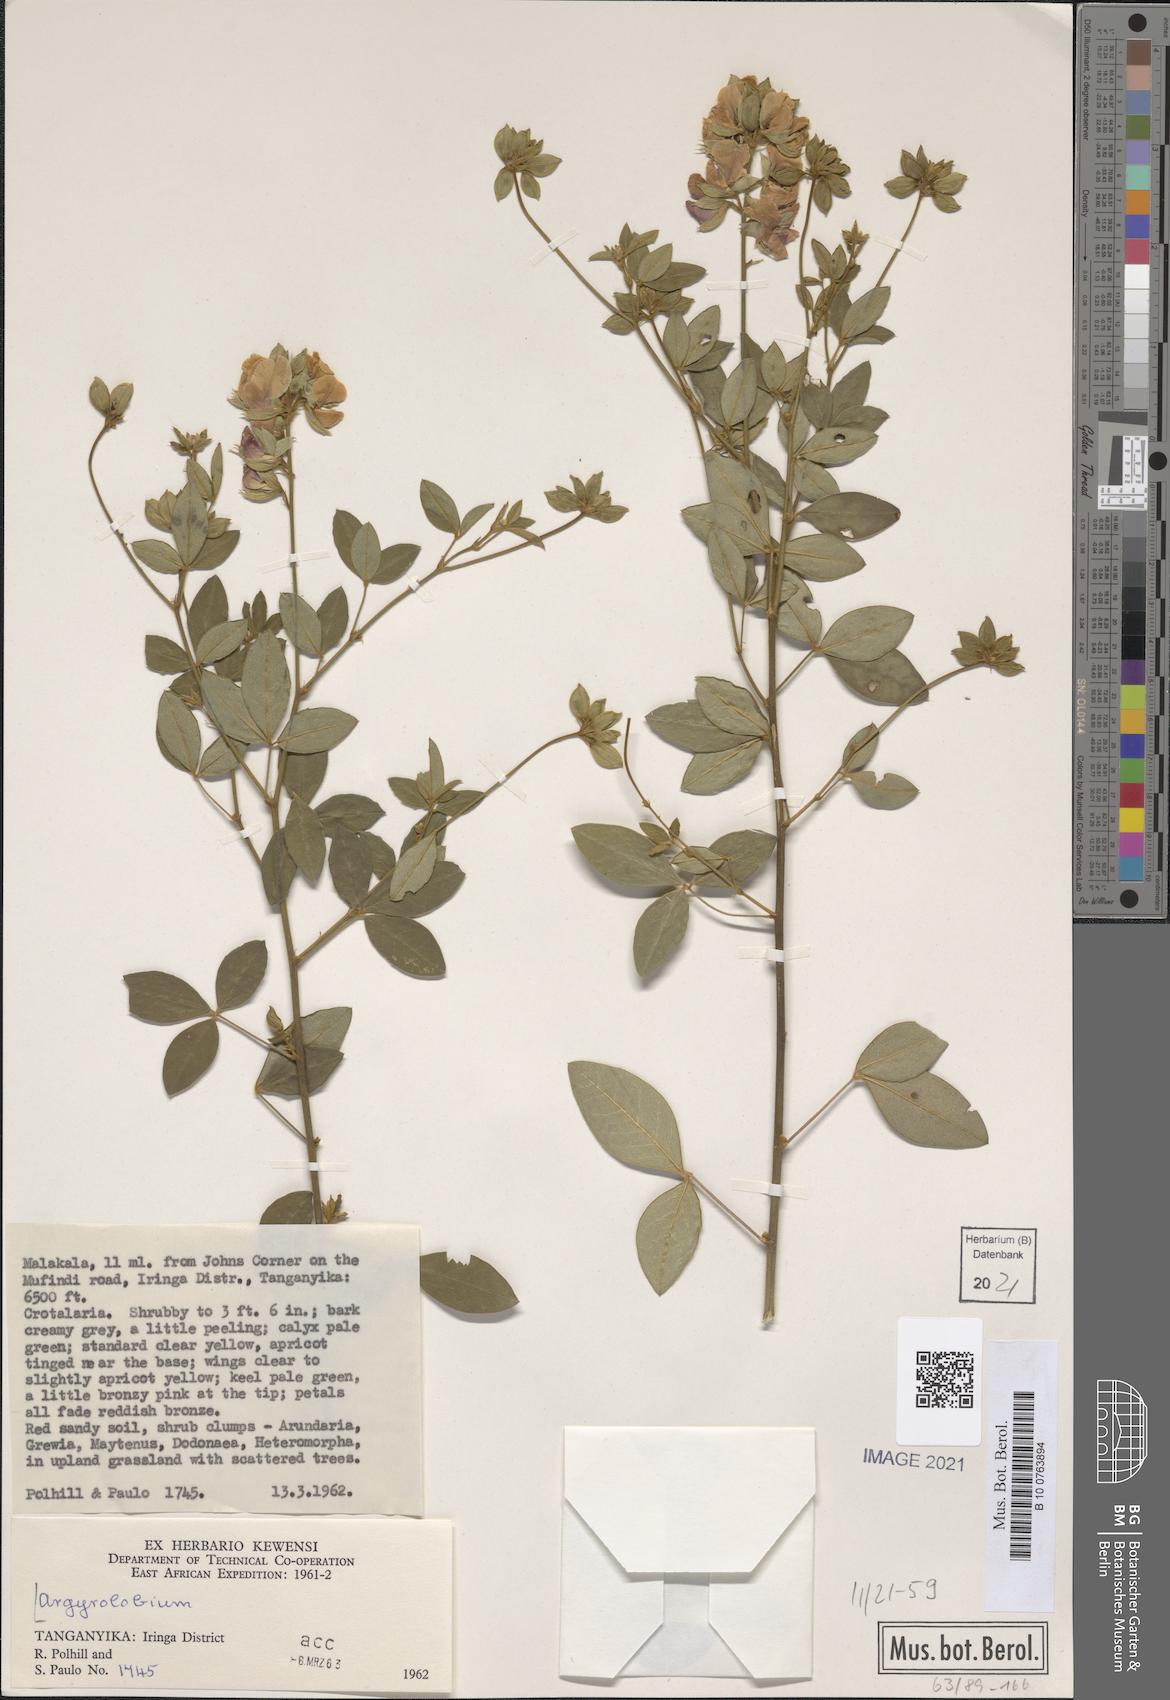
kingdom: Plantae
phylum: Tracheophyta
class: Magnoliopsida
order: Fabales
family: Fabaceae
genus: Argyrolobium
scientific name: Argyrolobium
